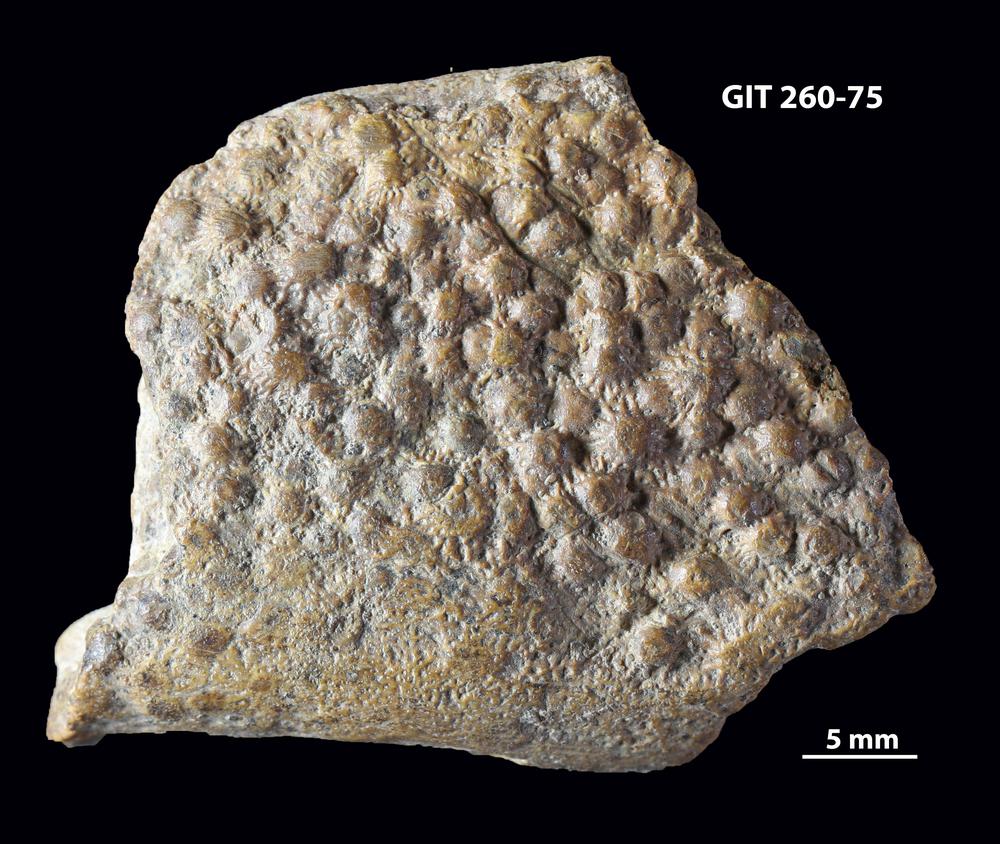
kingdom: Animalia
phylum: Chordata
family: Homostiidae
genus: Homostius
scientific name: Homostius
